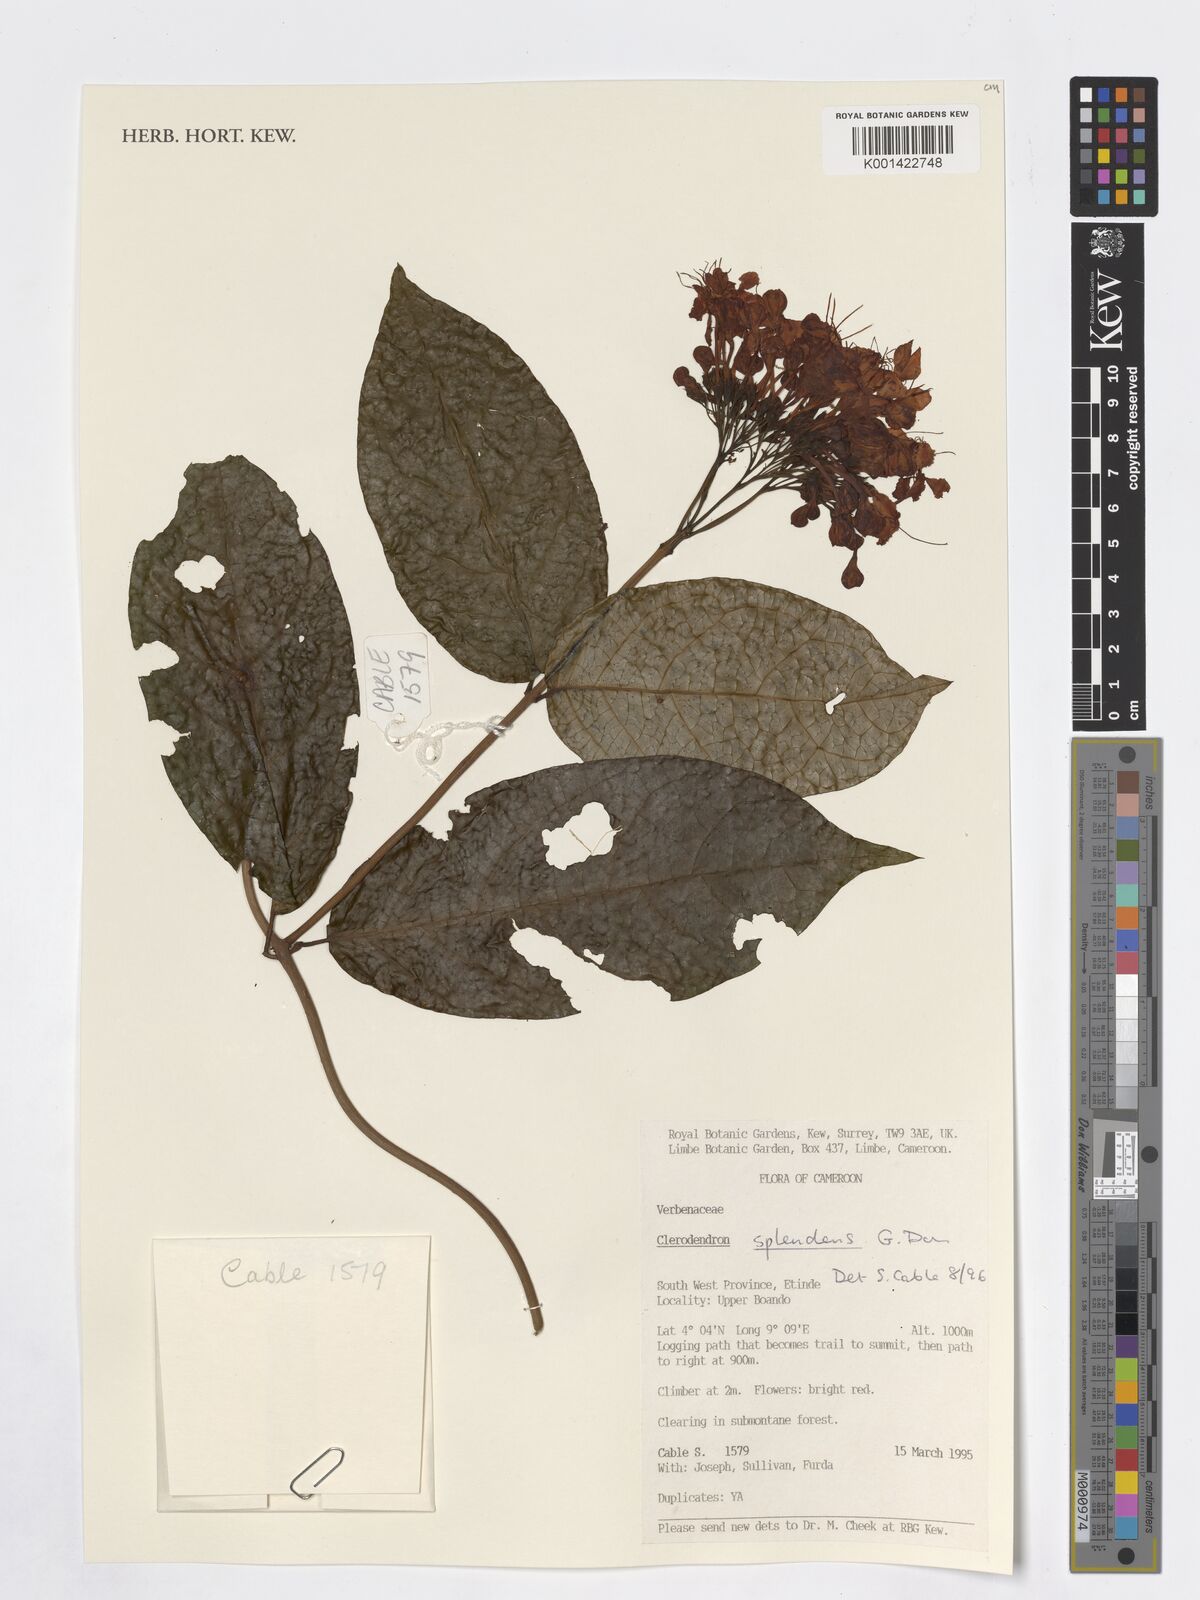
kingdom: Plantae
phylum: Tracheophyta
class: Magnoliopsida
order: Lamiales
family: Verbenaceae
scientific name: Verbenaceae
